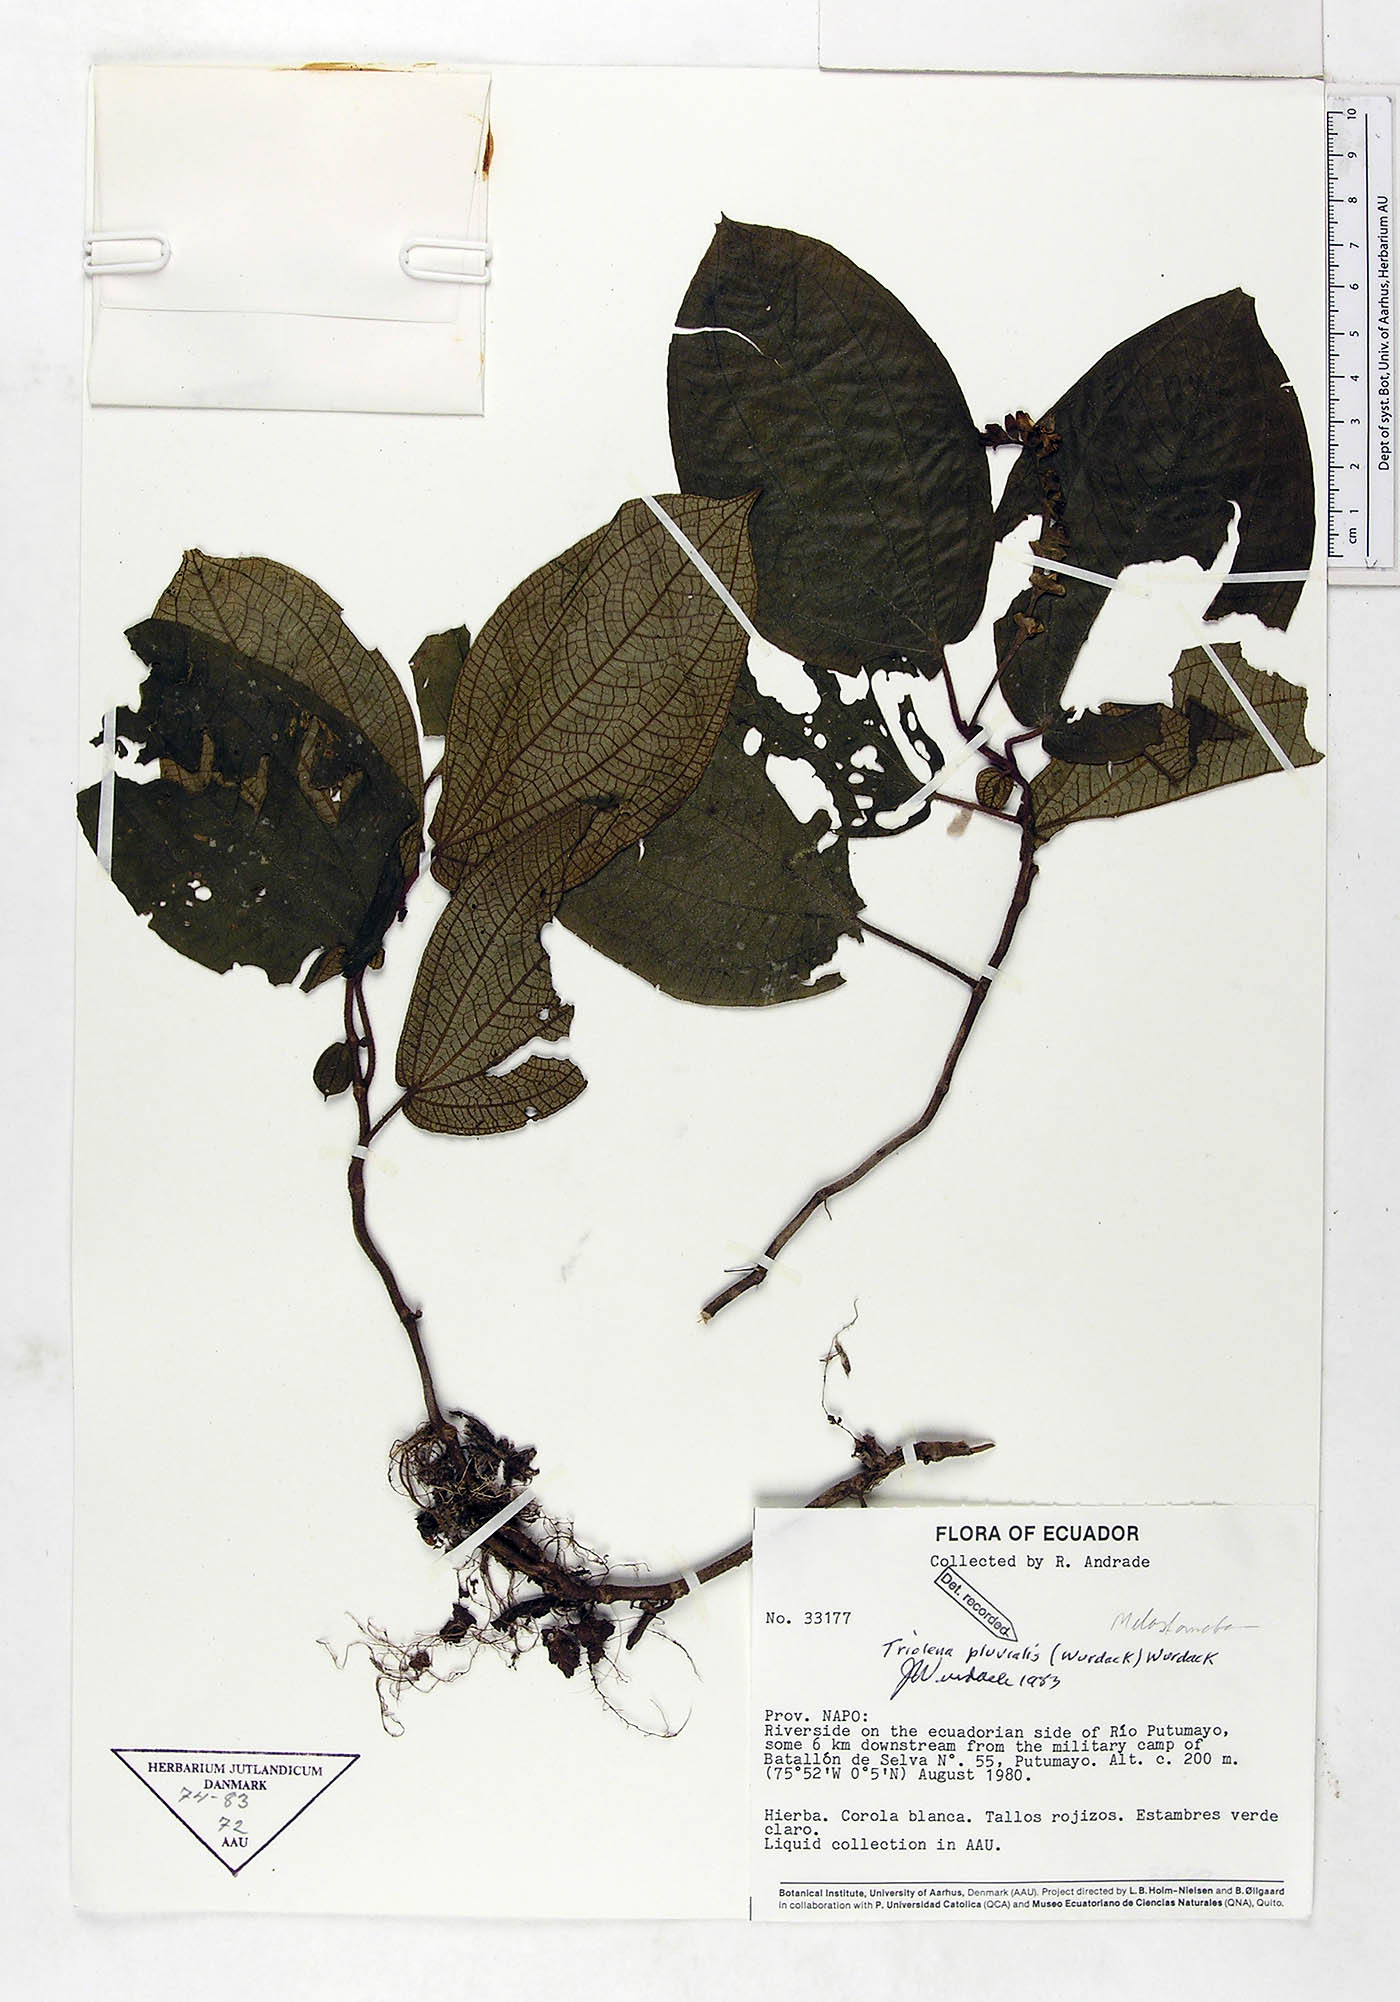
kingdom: Plantae
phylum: Tracheophyta
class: Magnoliopsida
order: Myrtales
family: Melastomataceae
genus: Triolena
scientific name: Triolena pluvialis
